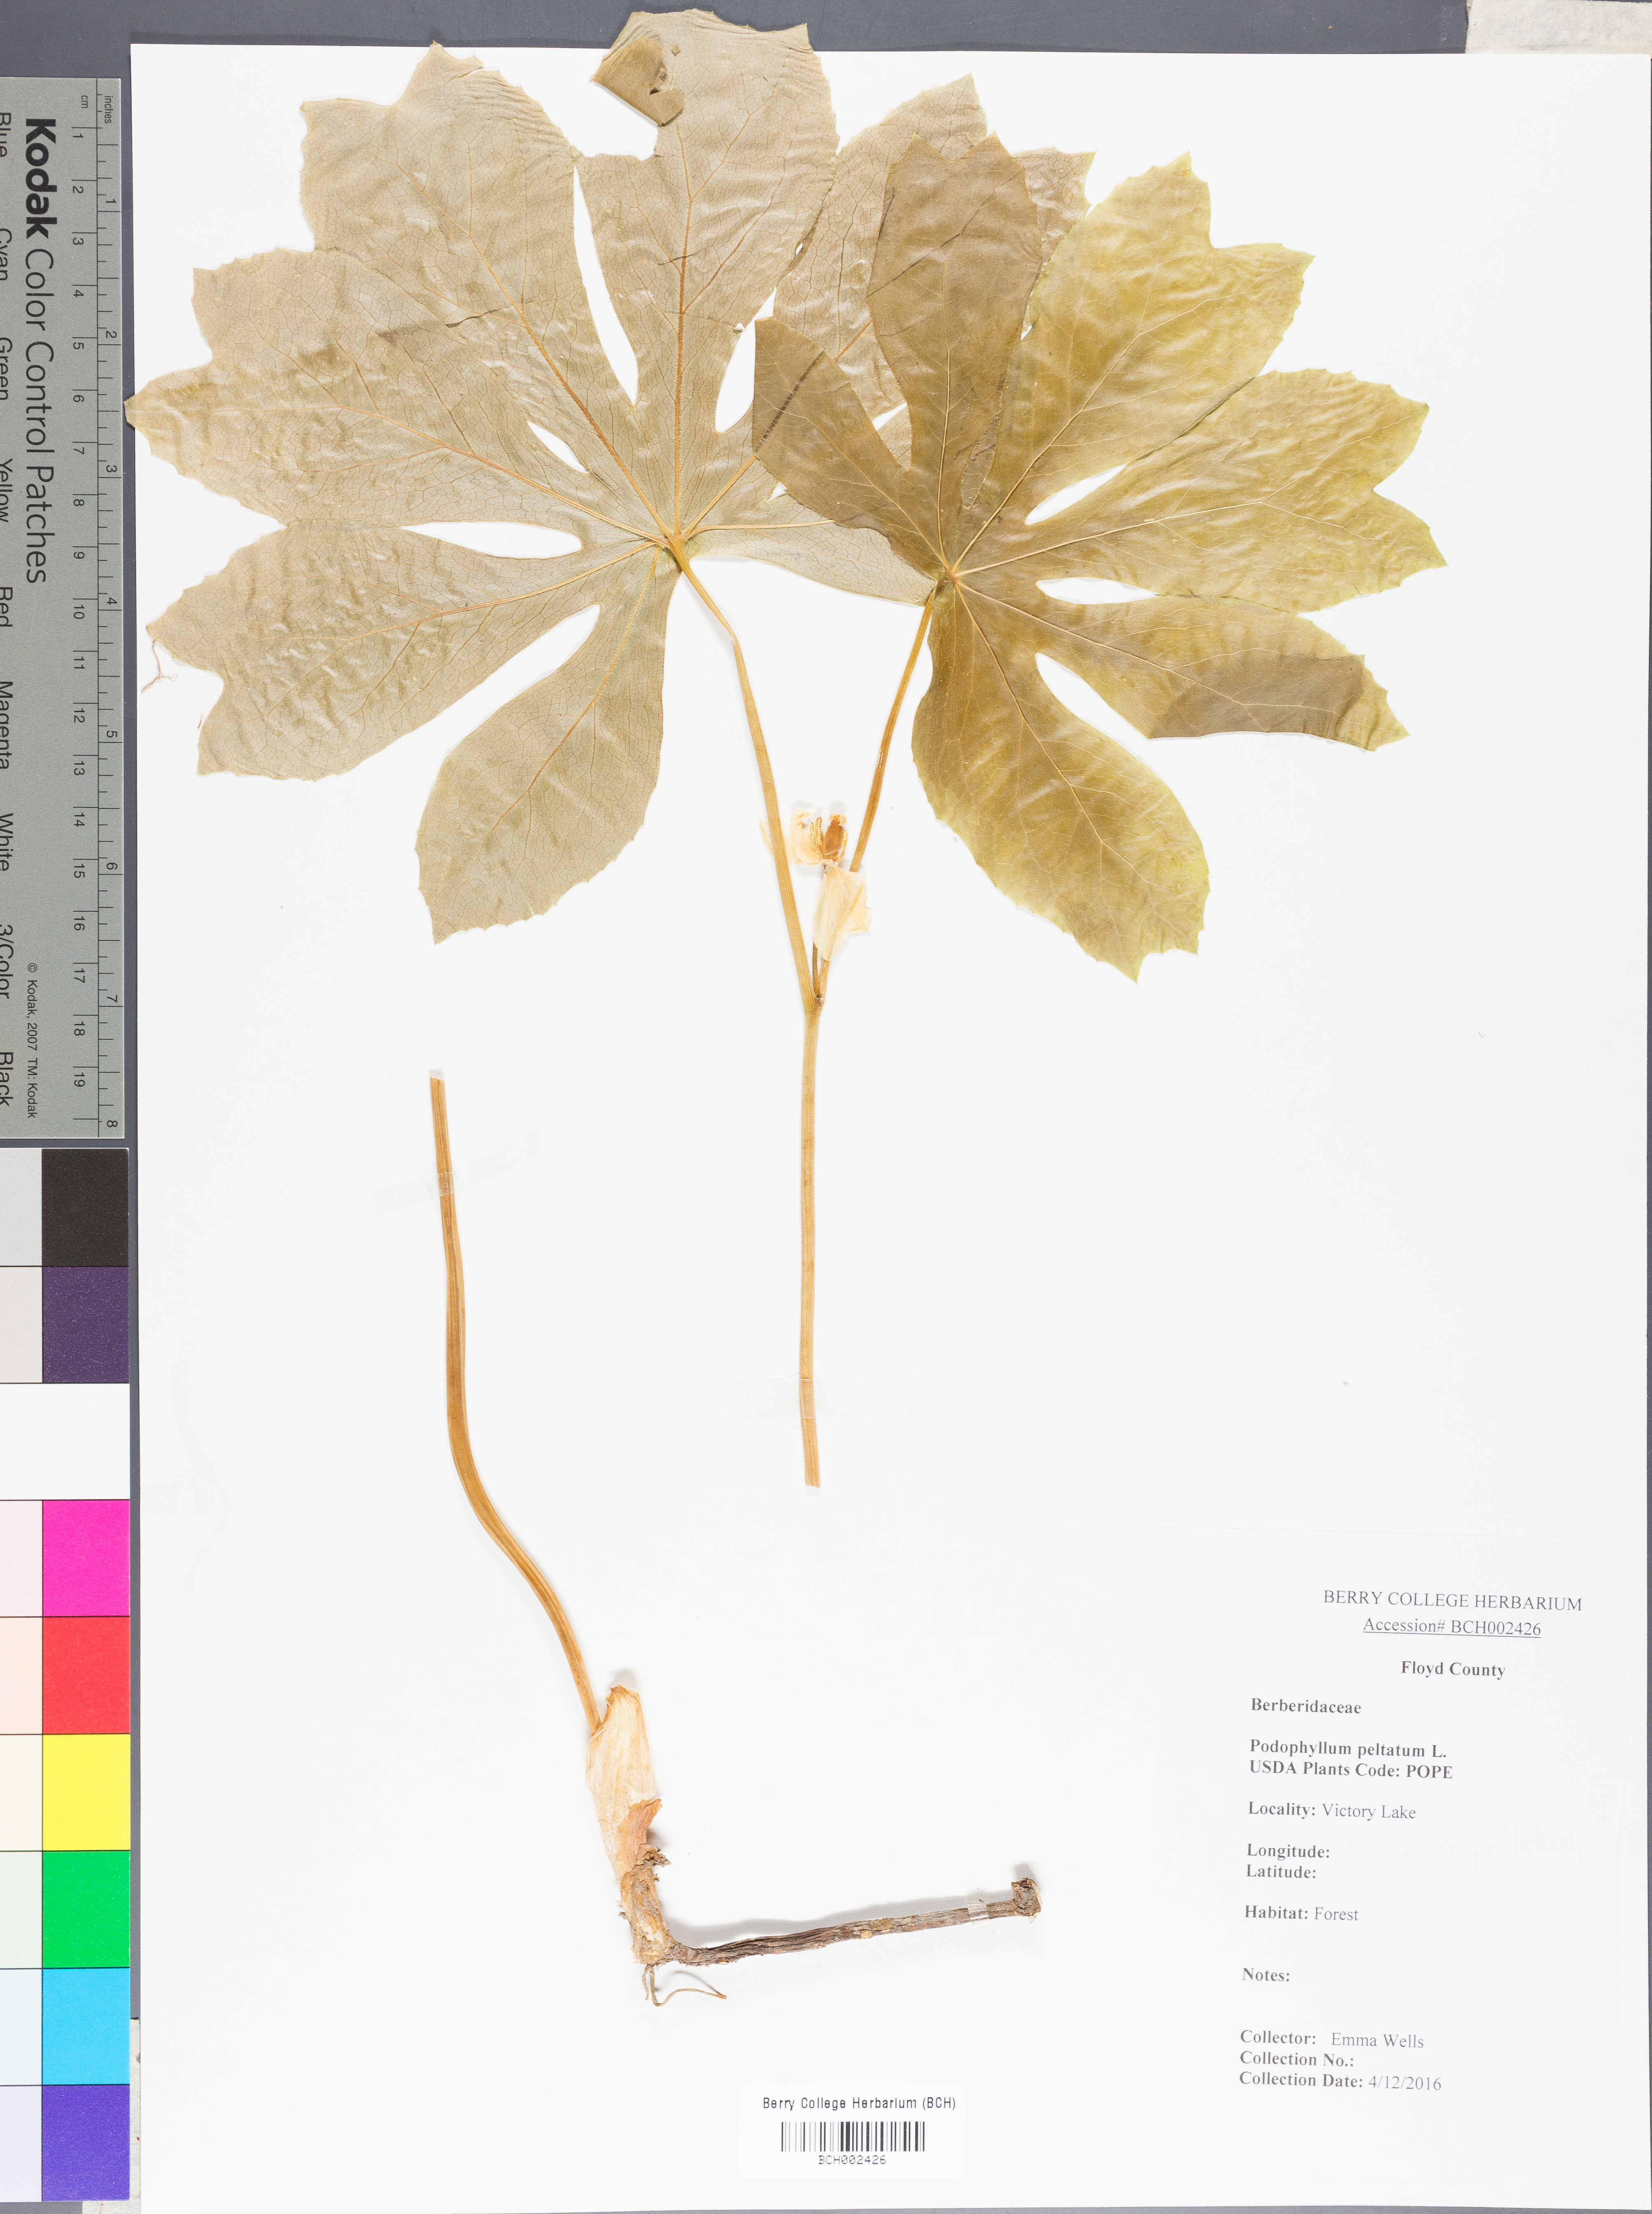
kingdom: Plantae
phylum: Tracheophyta
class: Magnoliopsida
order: Ranunculales
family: Berberidaceae
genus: Podophyllum
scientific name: Podophyllum peltatum
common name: Wild mandrake
